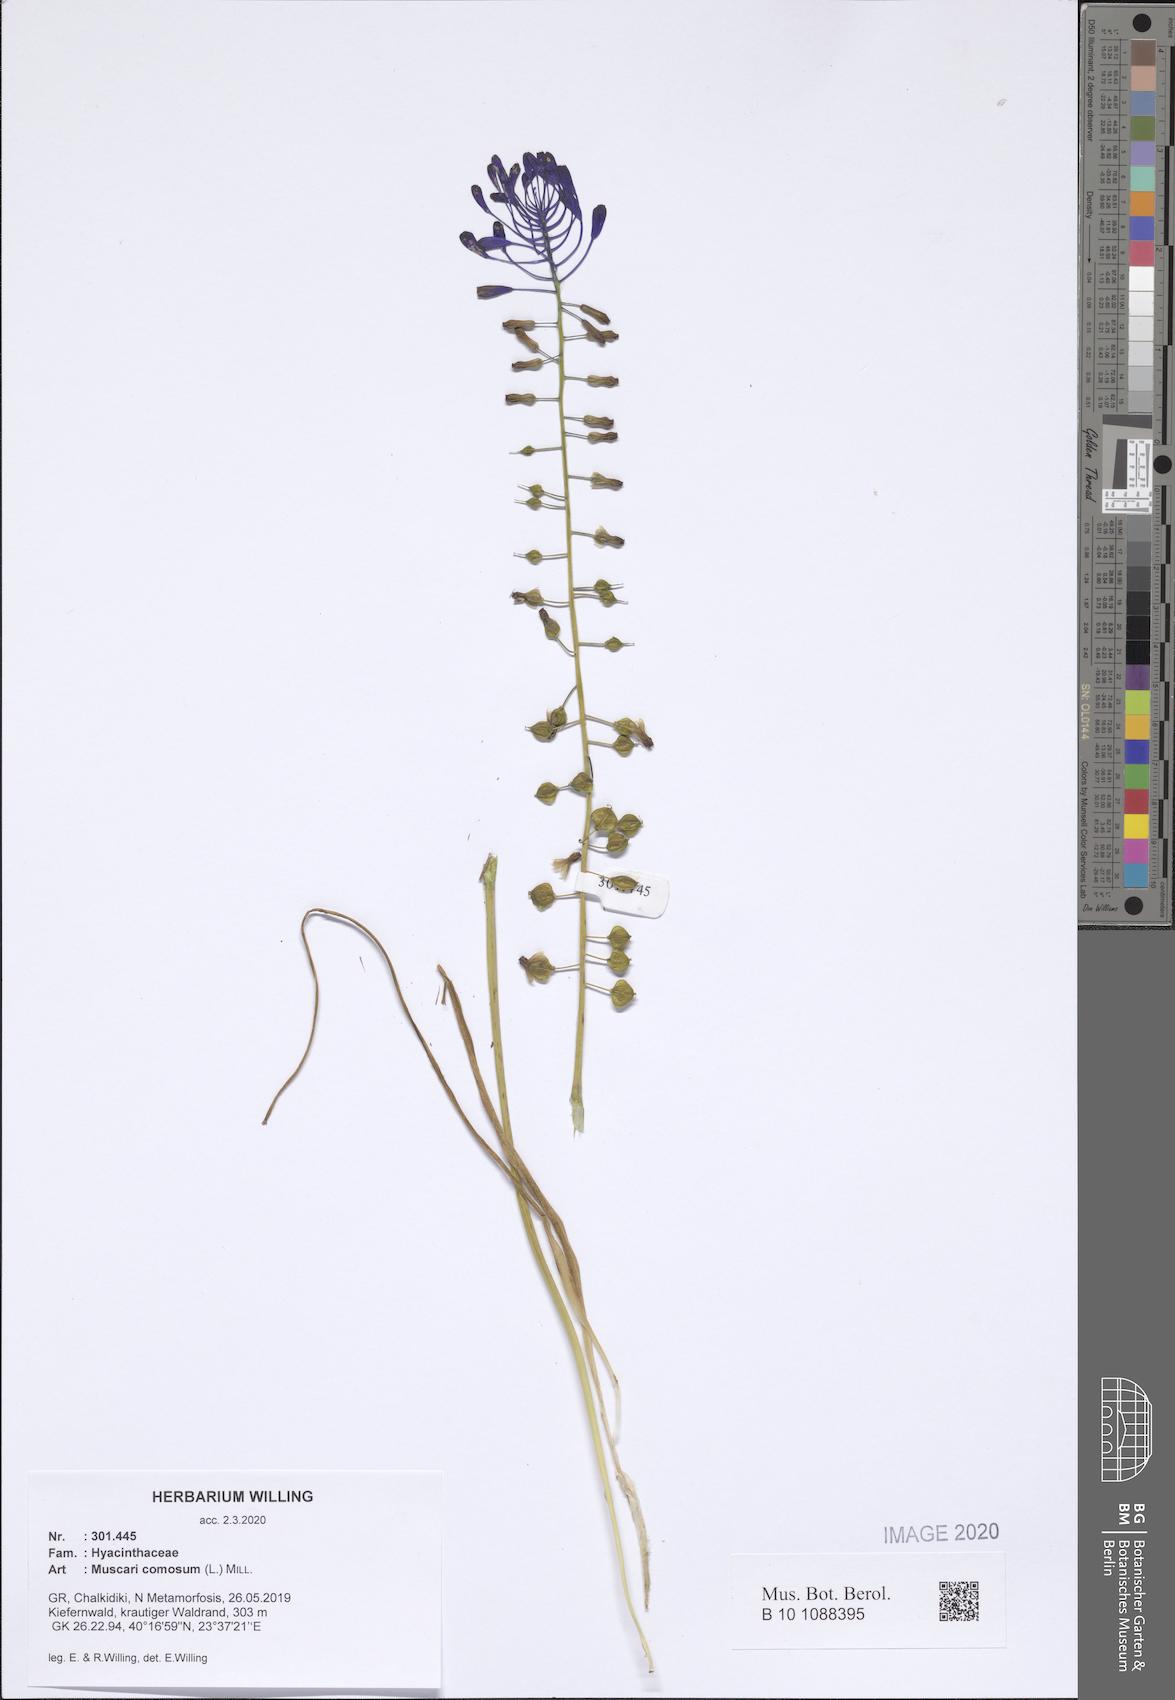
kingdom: Plantae
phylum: Tracheophyta
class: Liliopsida
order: Asparagales
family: Asparagaceae
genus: Muscari
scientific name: Muscari comosum
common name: Tassel hyacinth
